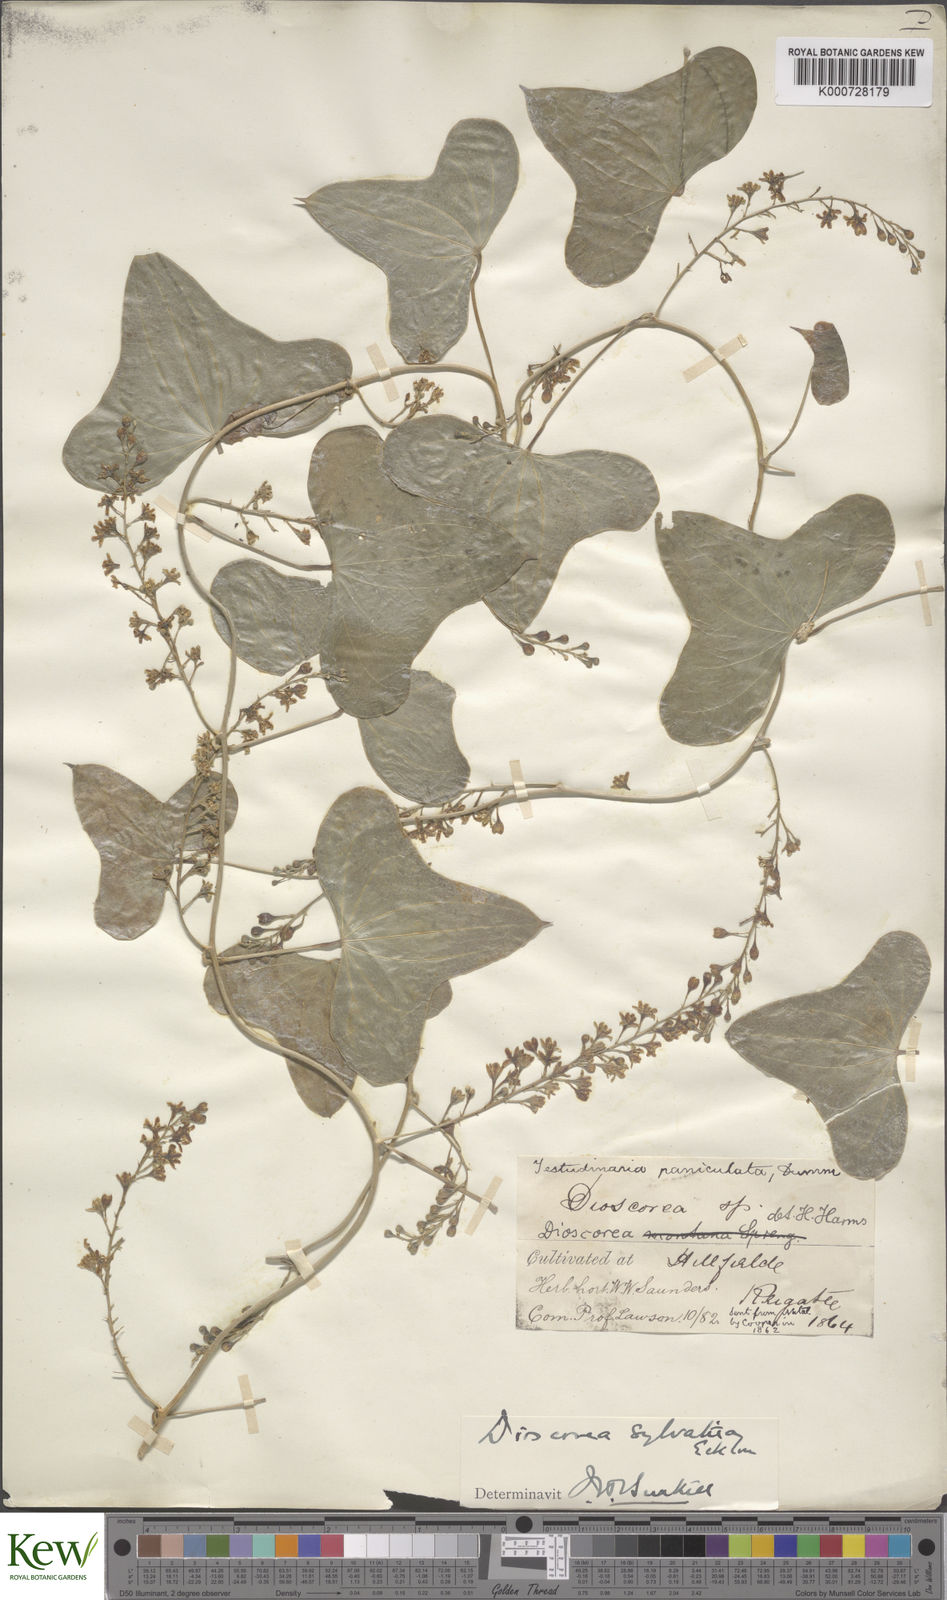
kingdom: Plantae
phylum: Tracheophyta
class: Liliopsida
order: Dioscoreales
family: Dioscoreaceae
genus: Dioscorea
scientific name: Dioscorea sylvatica
